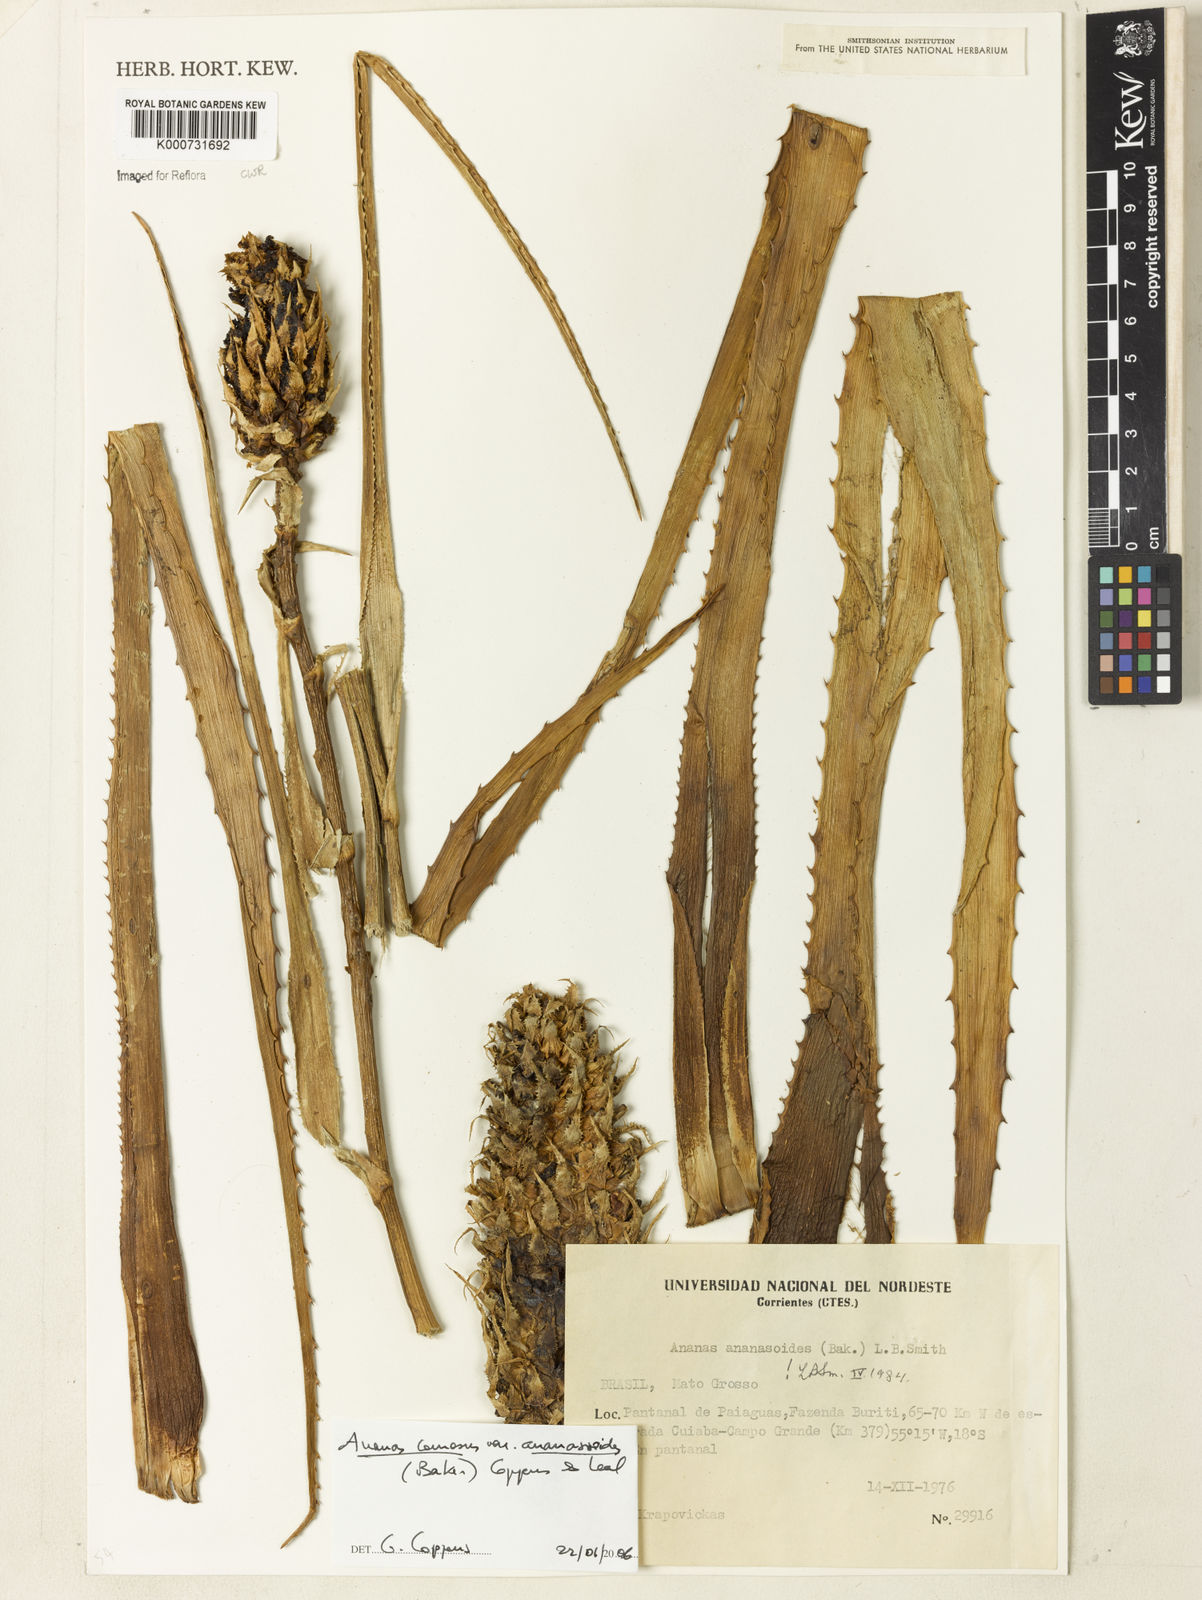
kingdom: Plantae
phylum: Tracheophyta
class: Liliopsida
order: Poales
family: Bromeliaceae
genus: Ananas
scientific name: Ananas comosus
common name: Pineapple
